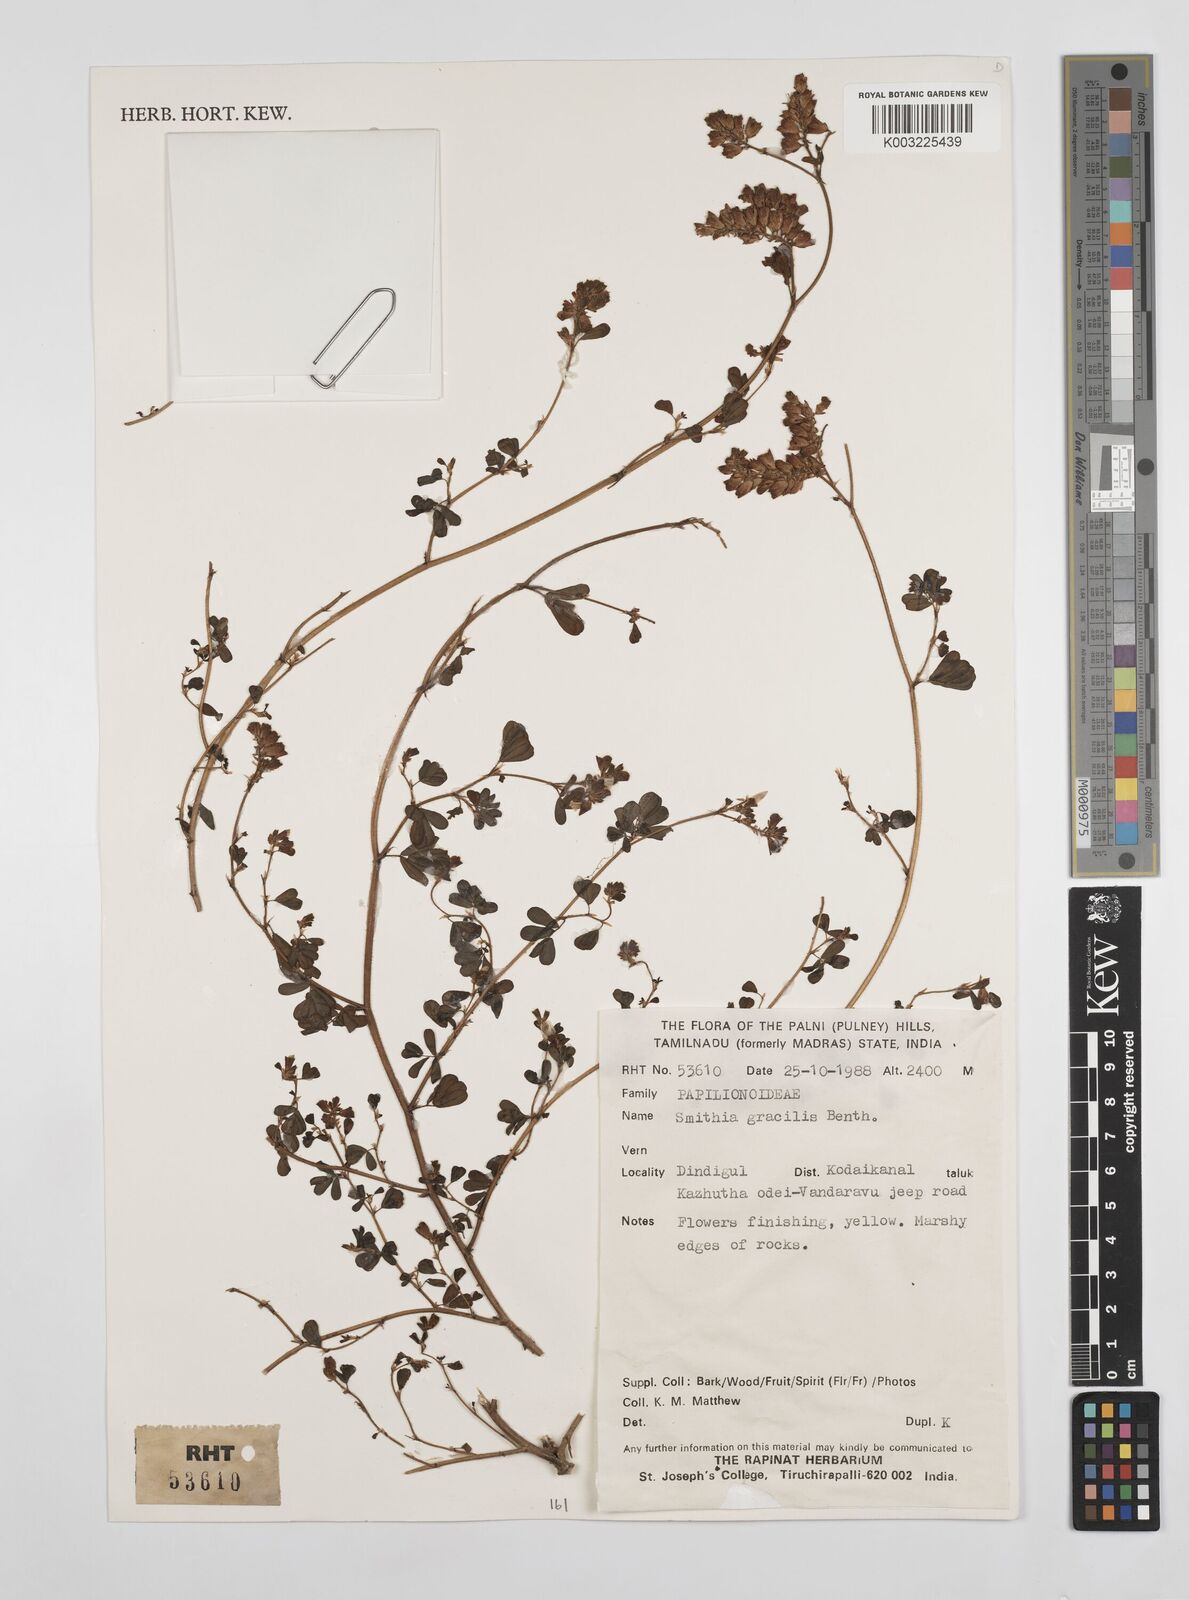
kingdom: Plantae
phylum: Tracheophyta
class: Magnoliopsida
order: Fabales
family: Fabaceae
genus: Smithia
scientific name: Smithia gracilis
